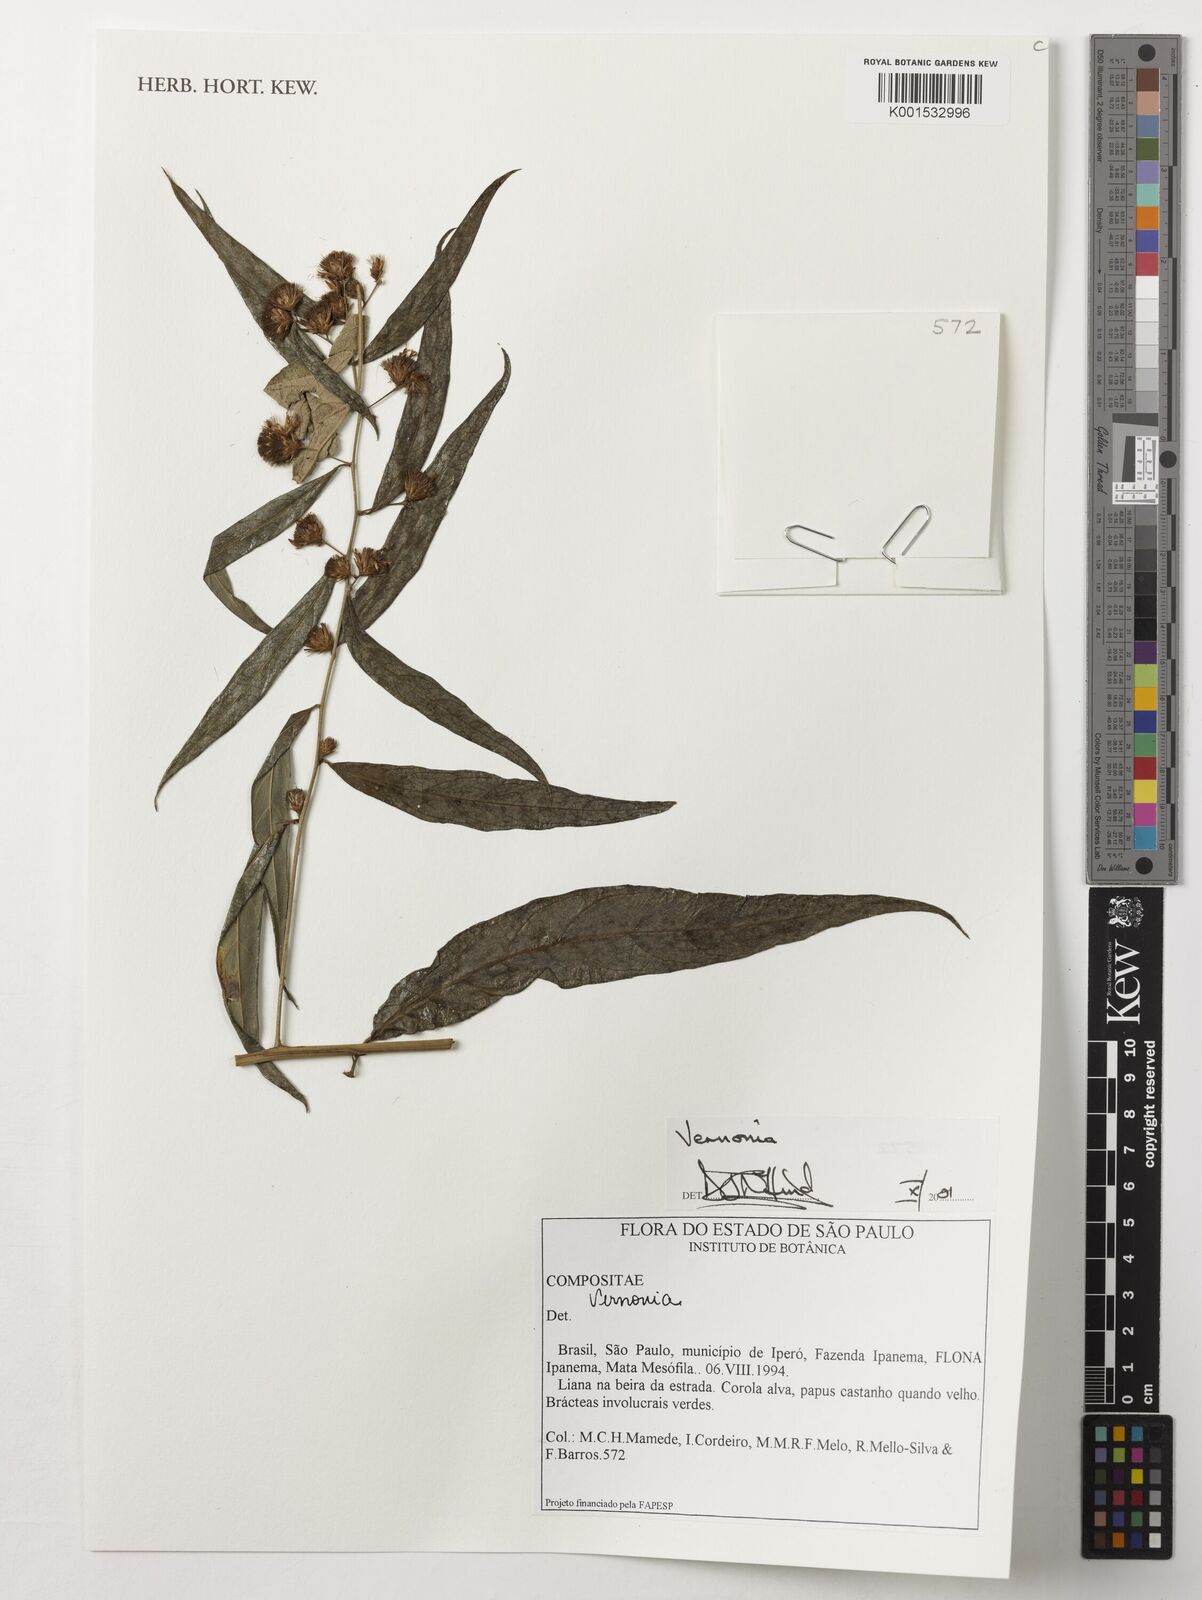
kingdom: Plantae
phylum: Tracheophyta
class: Magnoliopsida
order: Asterales
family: Asteraceae
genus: Vernonia
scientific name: Vernonia
